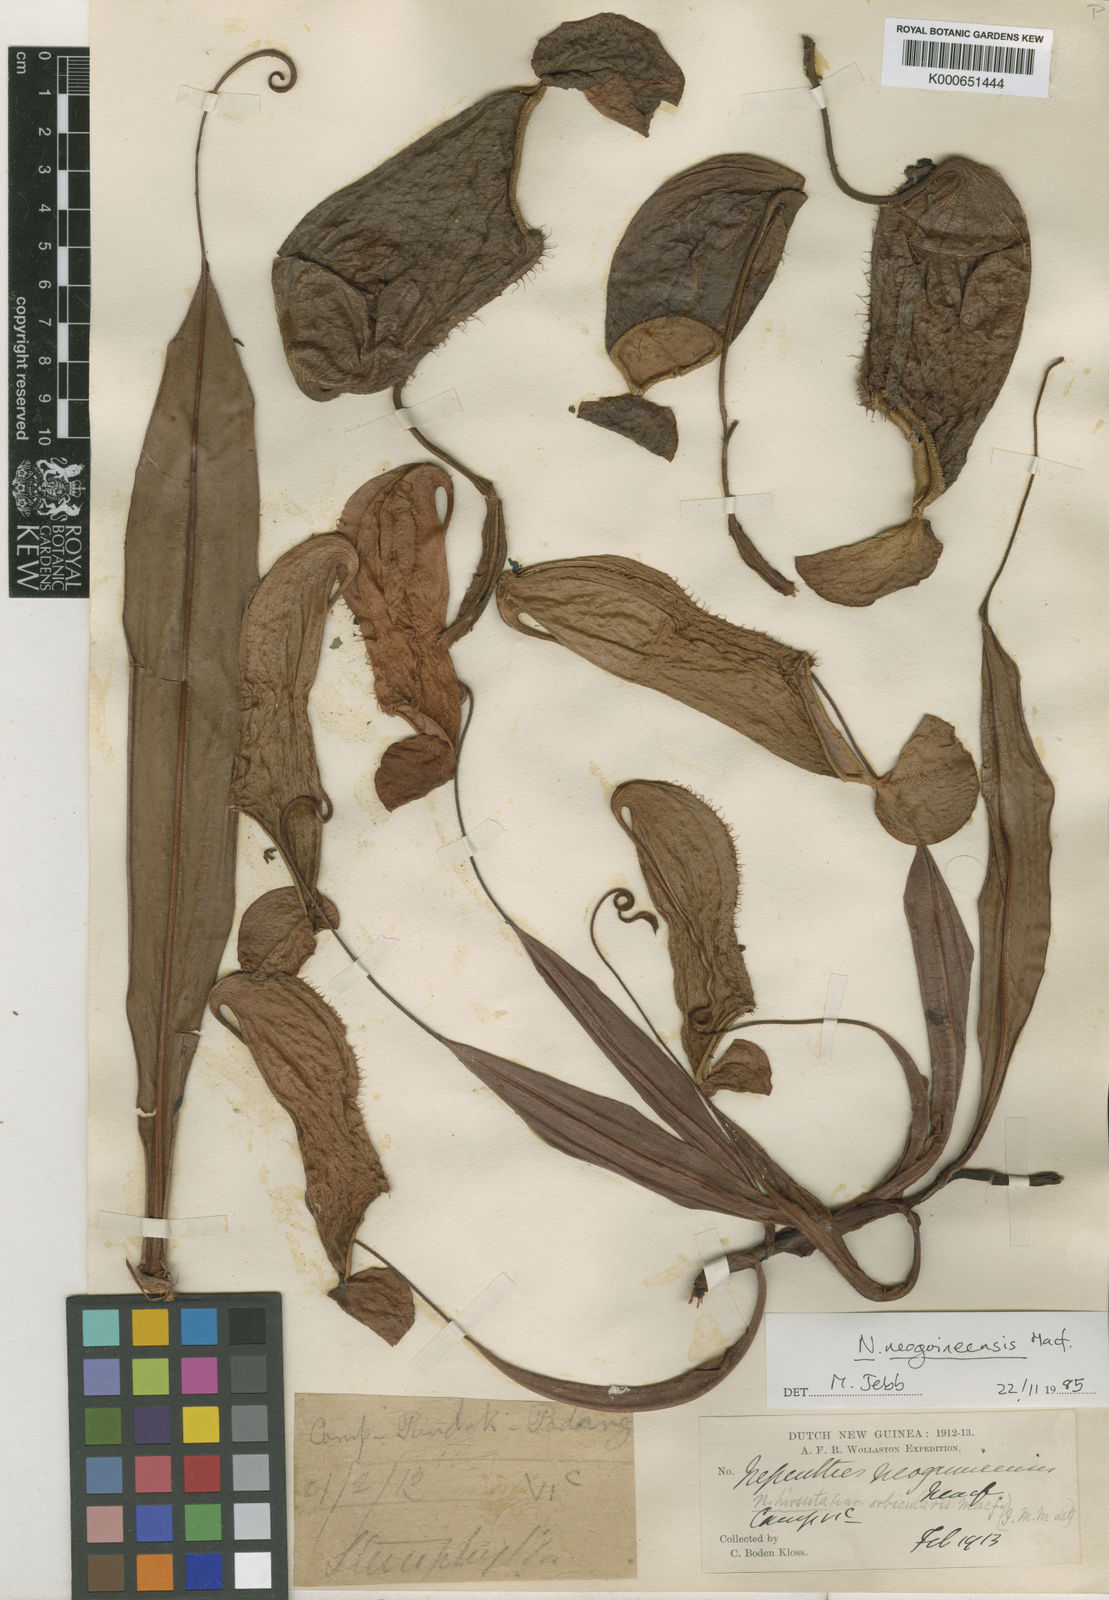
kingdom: Plantae
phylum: Tracheophyta
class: Magnoliopsida
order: Caryophyllales
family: Nepenthaceae
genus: Nepenthes
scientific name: Nepenthes neoguineensis
